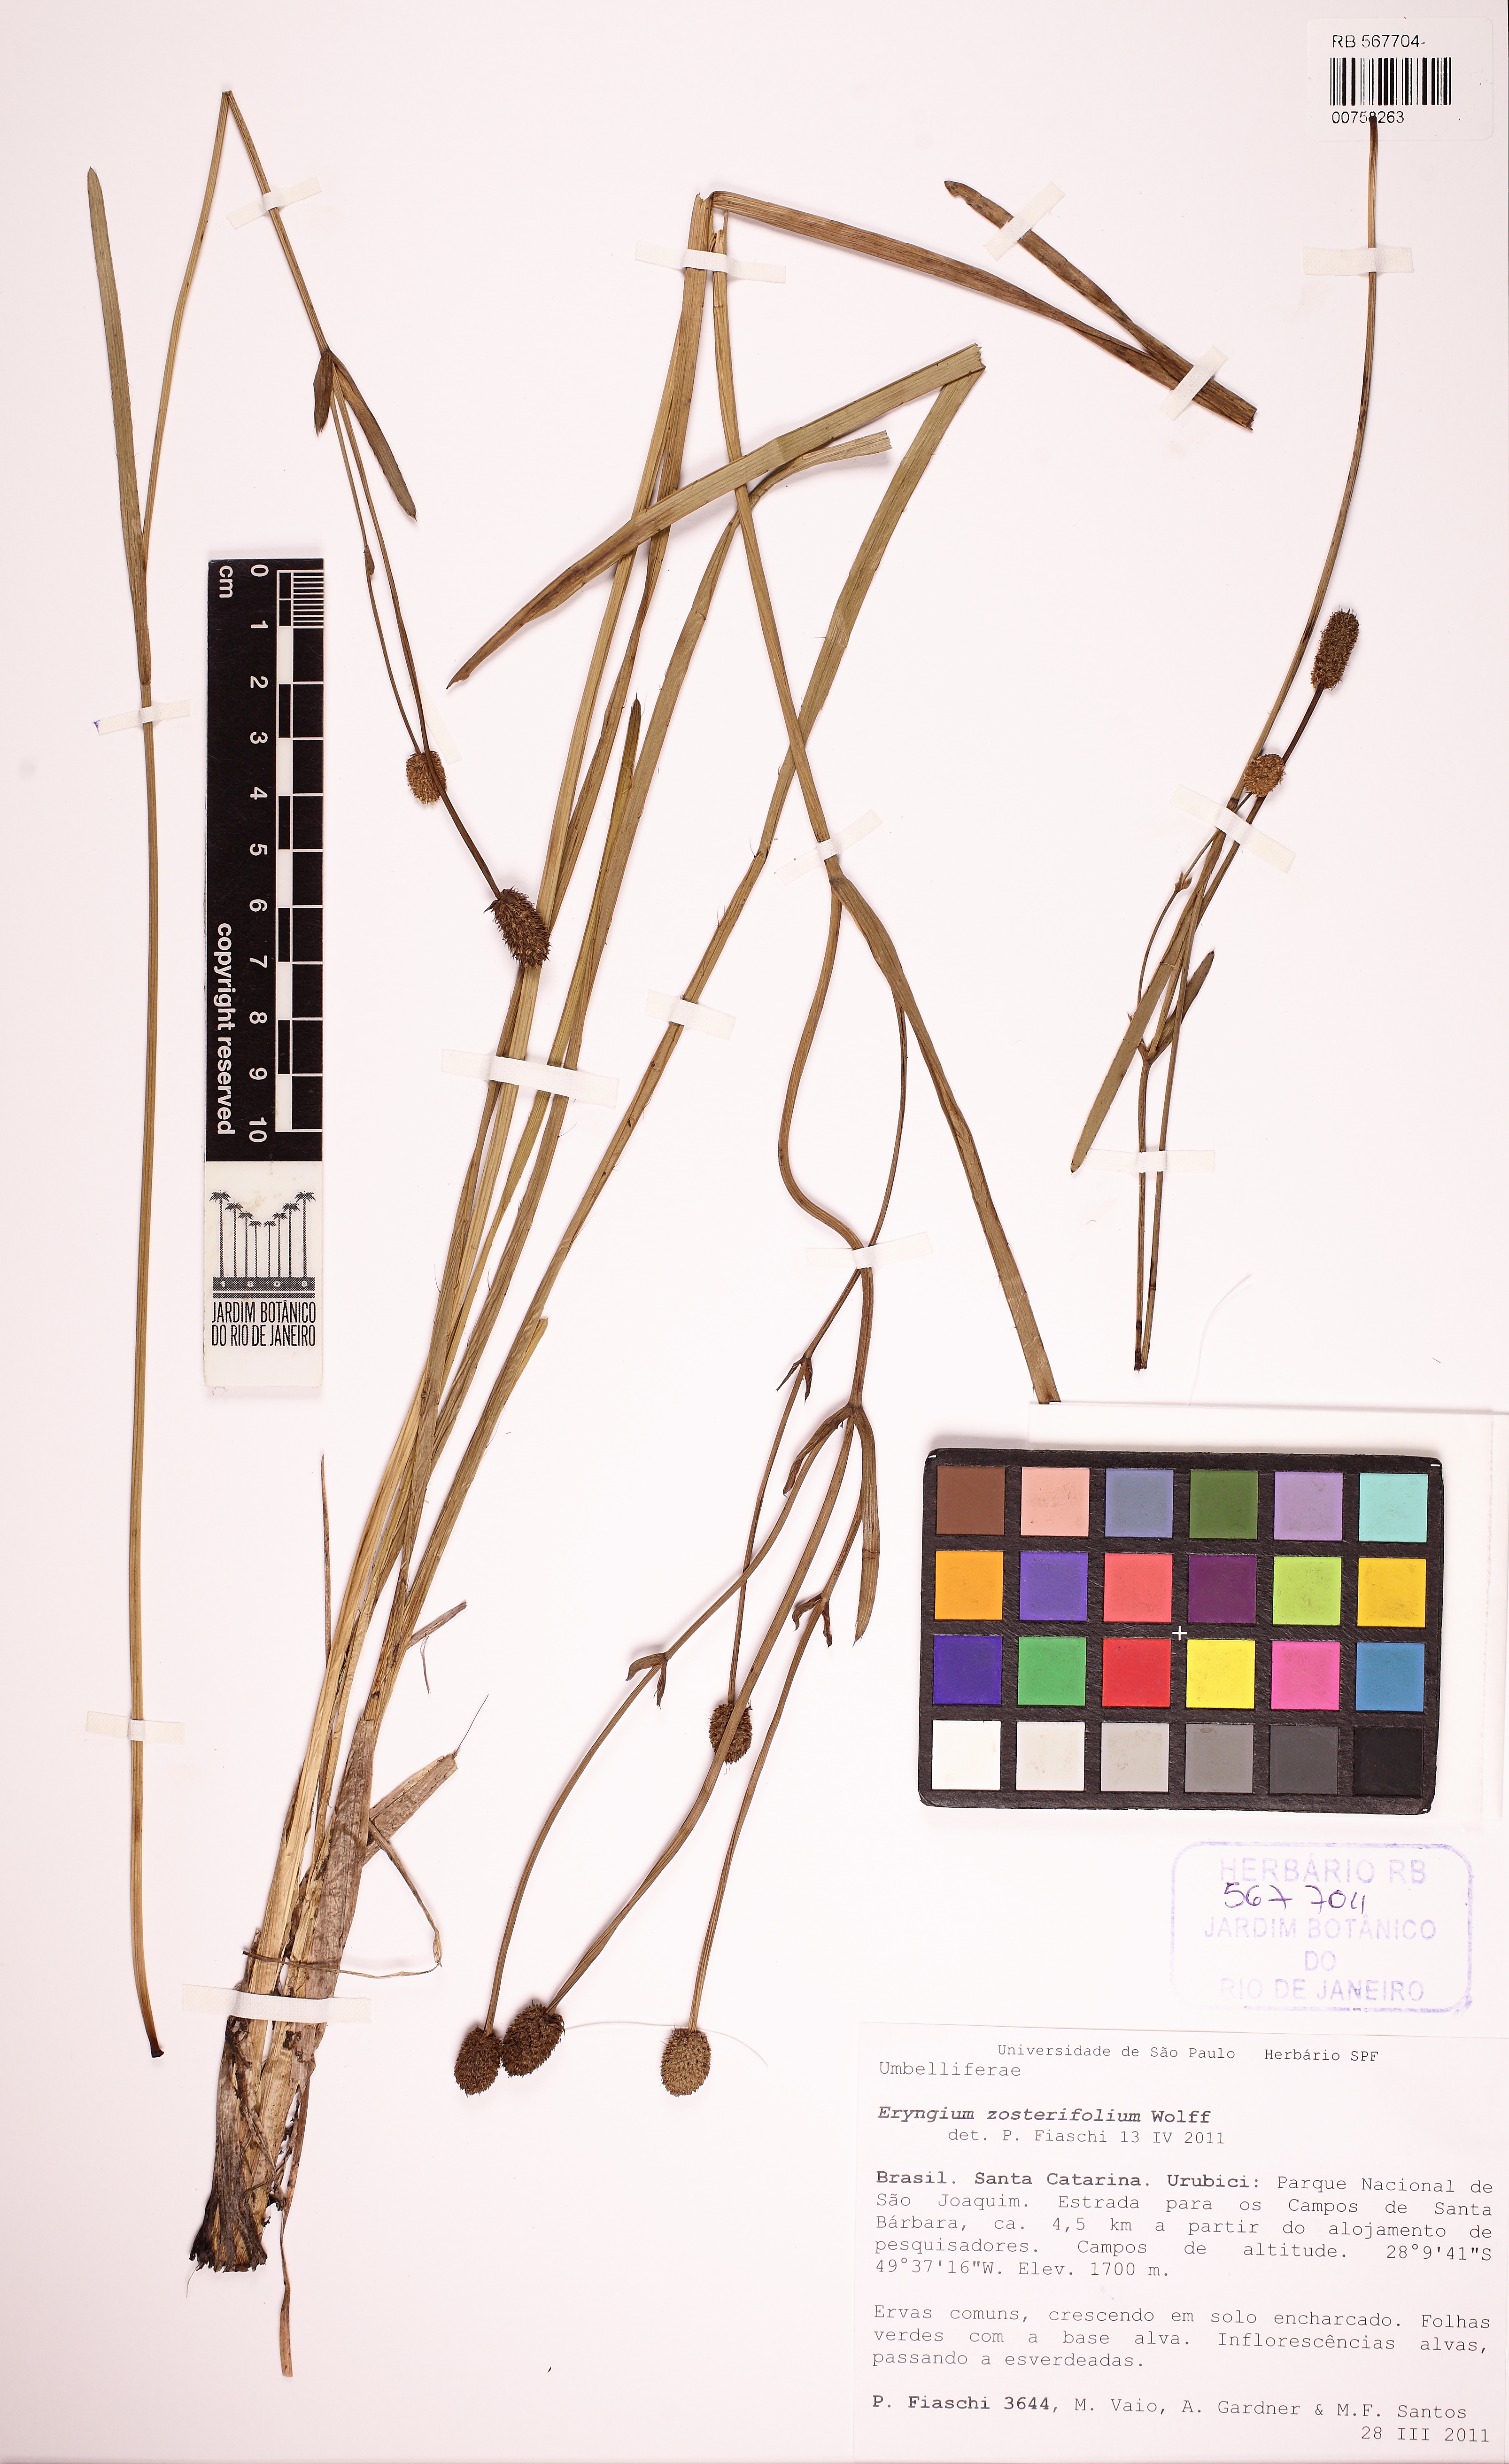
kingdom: Plantae
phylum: Tracheophyta
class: Magnoliopsida
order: Apiales
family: Apiaceae
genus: Eryngium
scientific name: Eryngium zosterifolium
